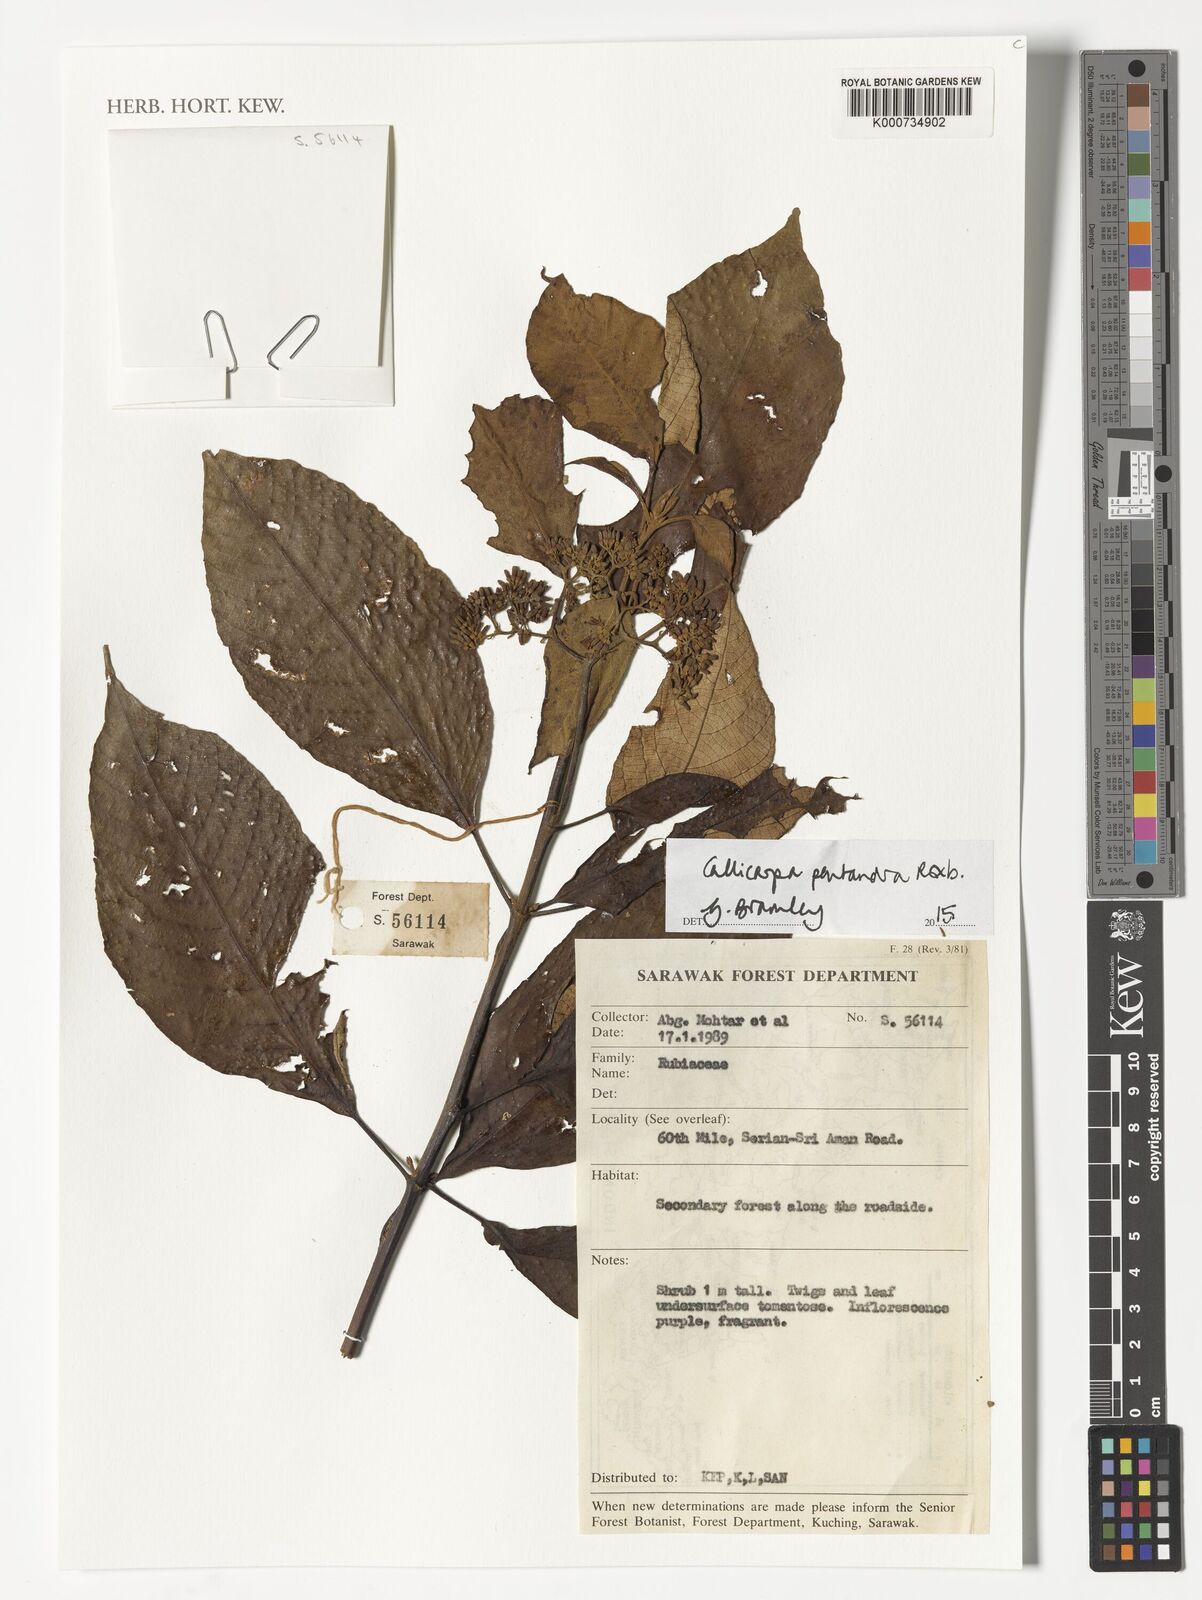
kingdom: Plantae
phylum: Tracheophyta
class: Magnoliopsida
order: Lamiales
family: Lamiaceae
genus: Callicarpa
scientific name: Callicarpa pentandra
